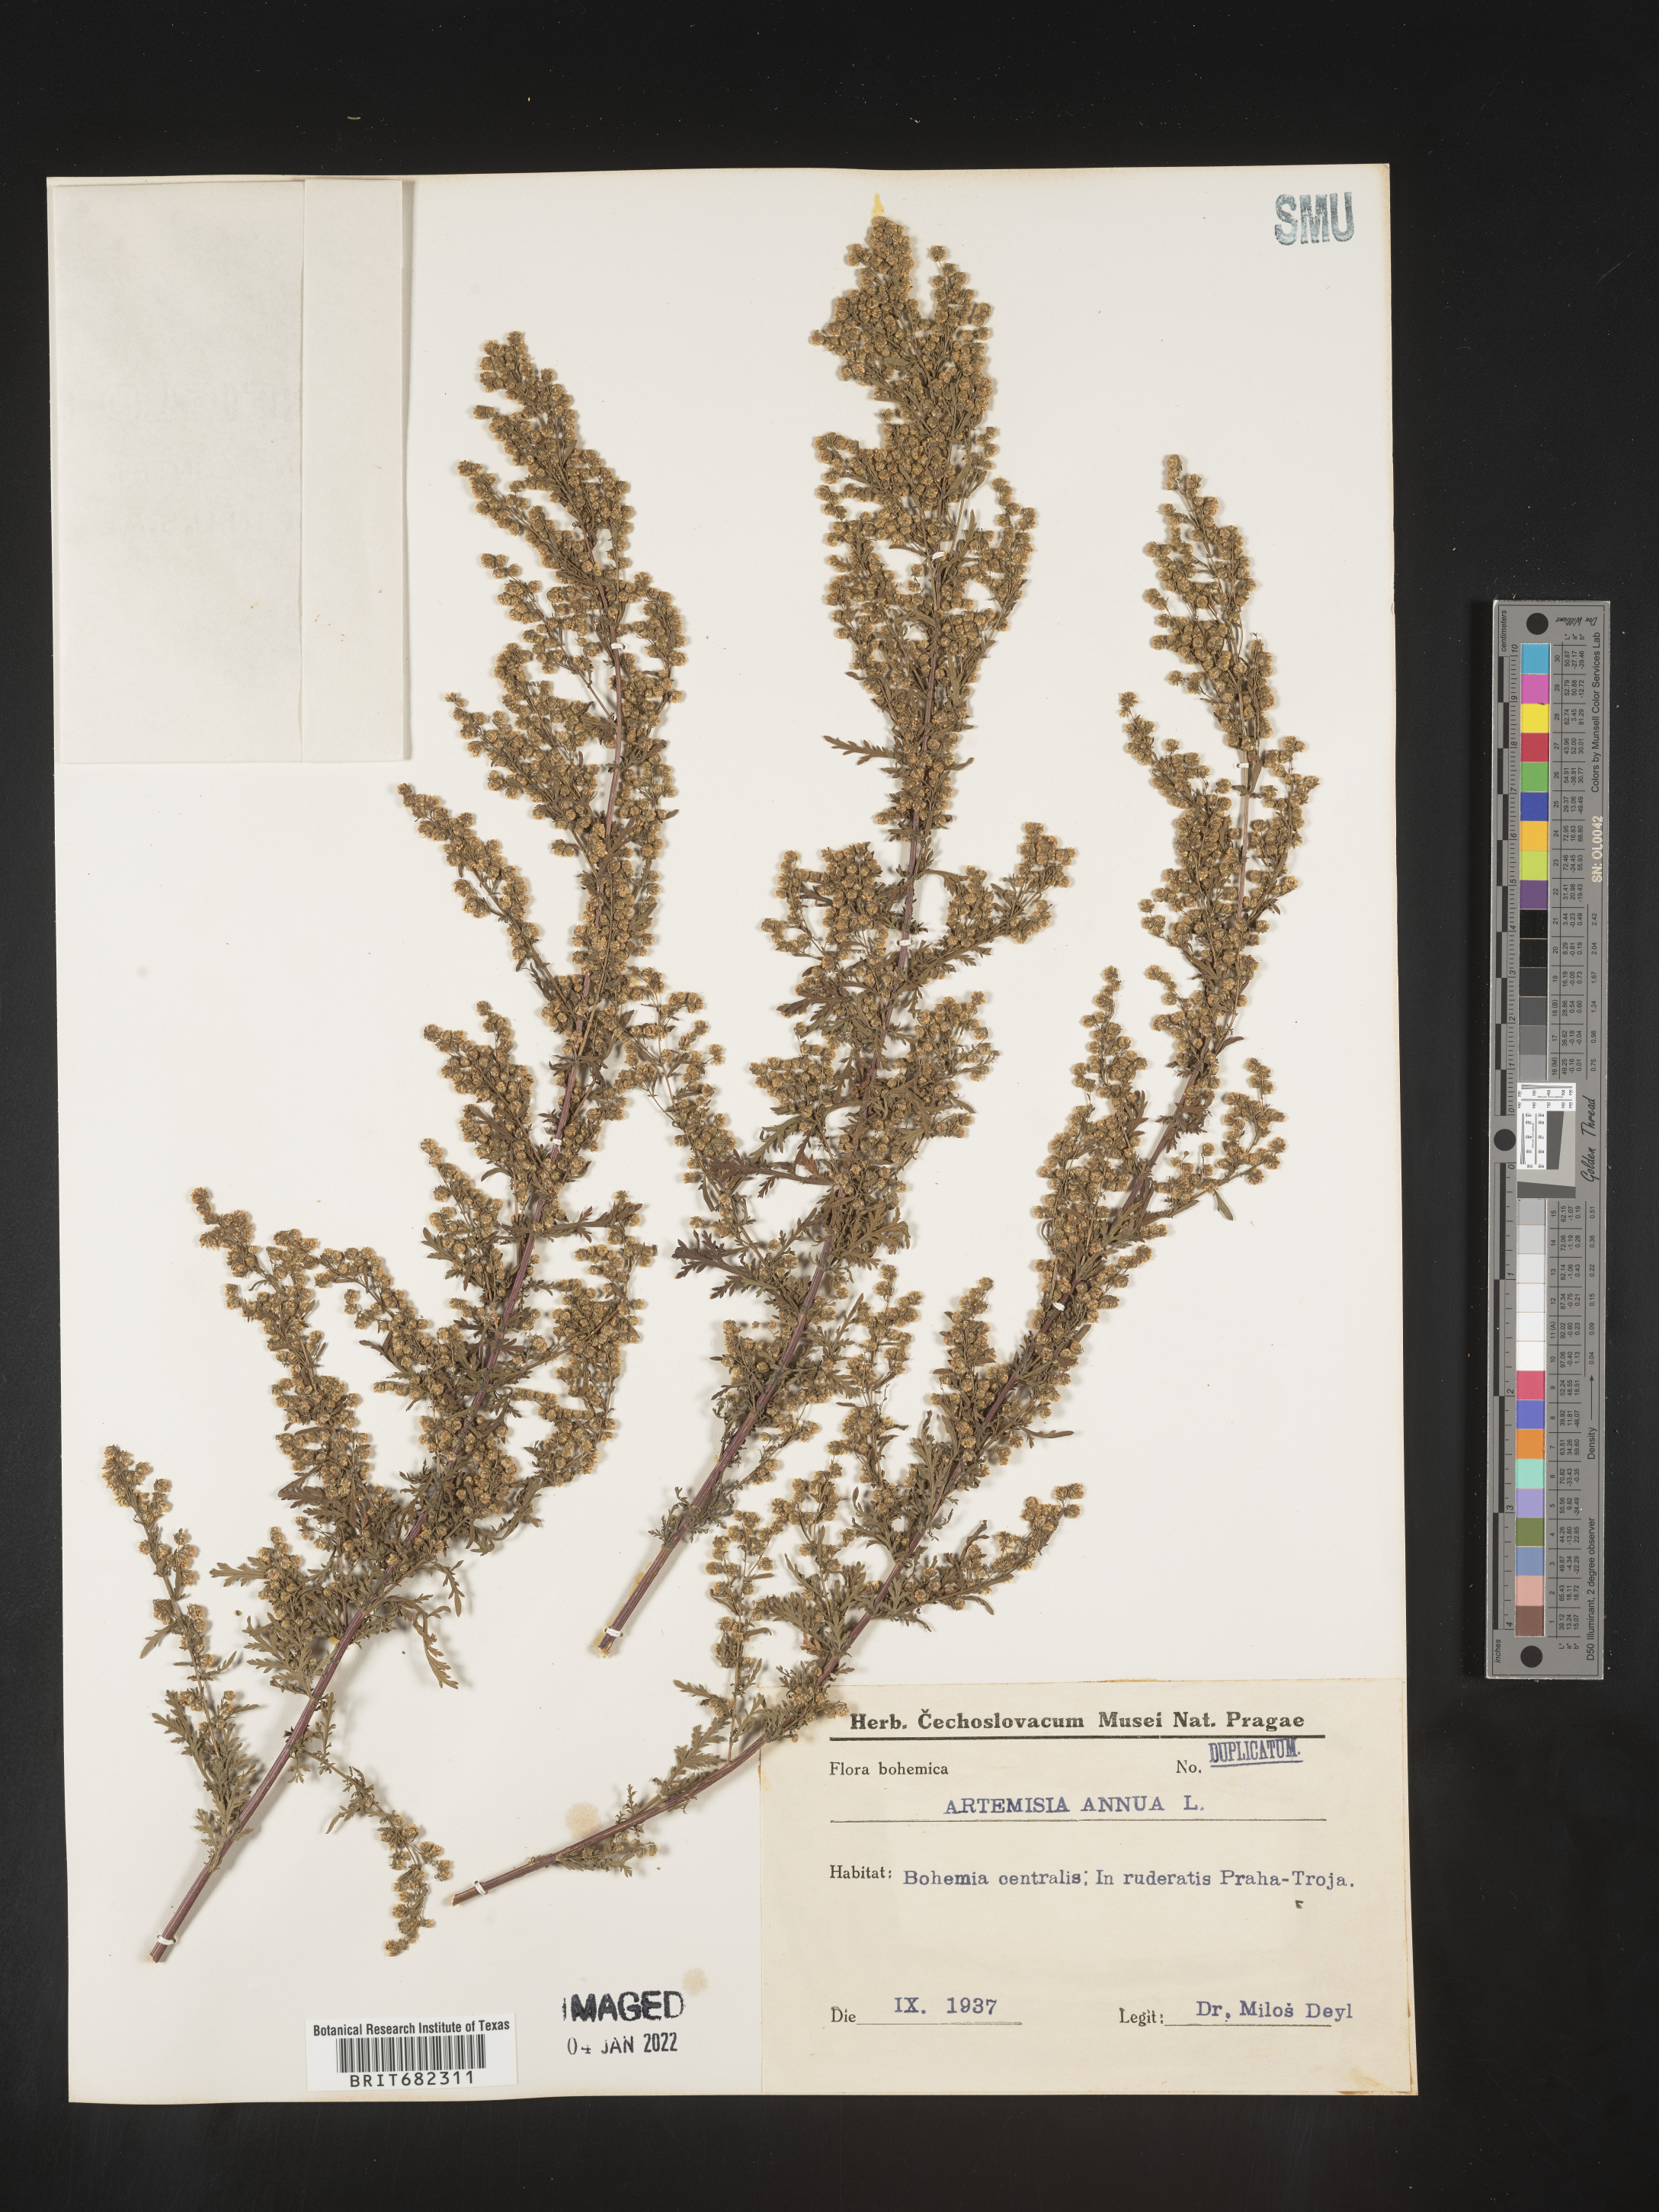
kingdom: Plantae
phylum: Tracheophyta
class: Magnoliopsida
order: Asterales
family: Asteraceae
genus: Artemisia
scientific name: Artemisia
